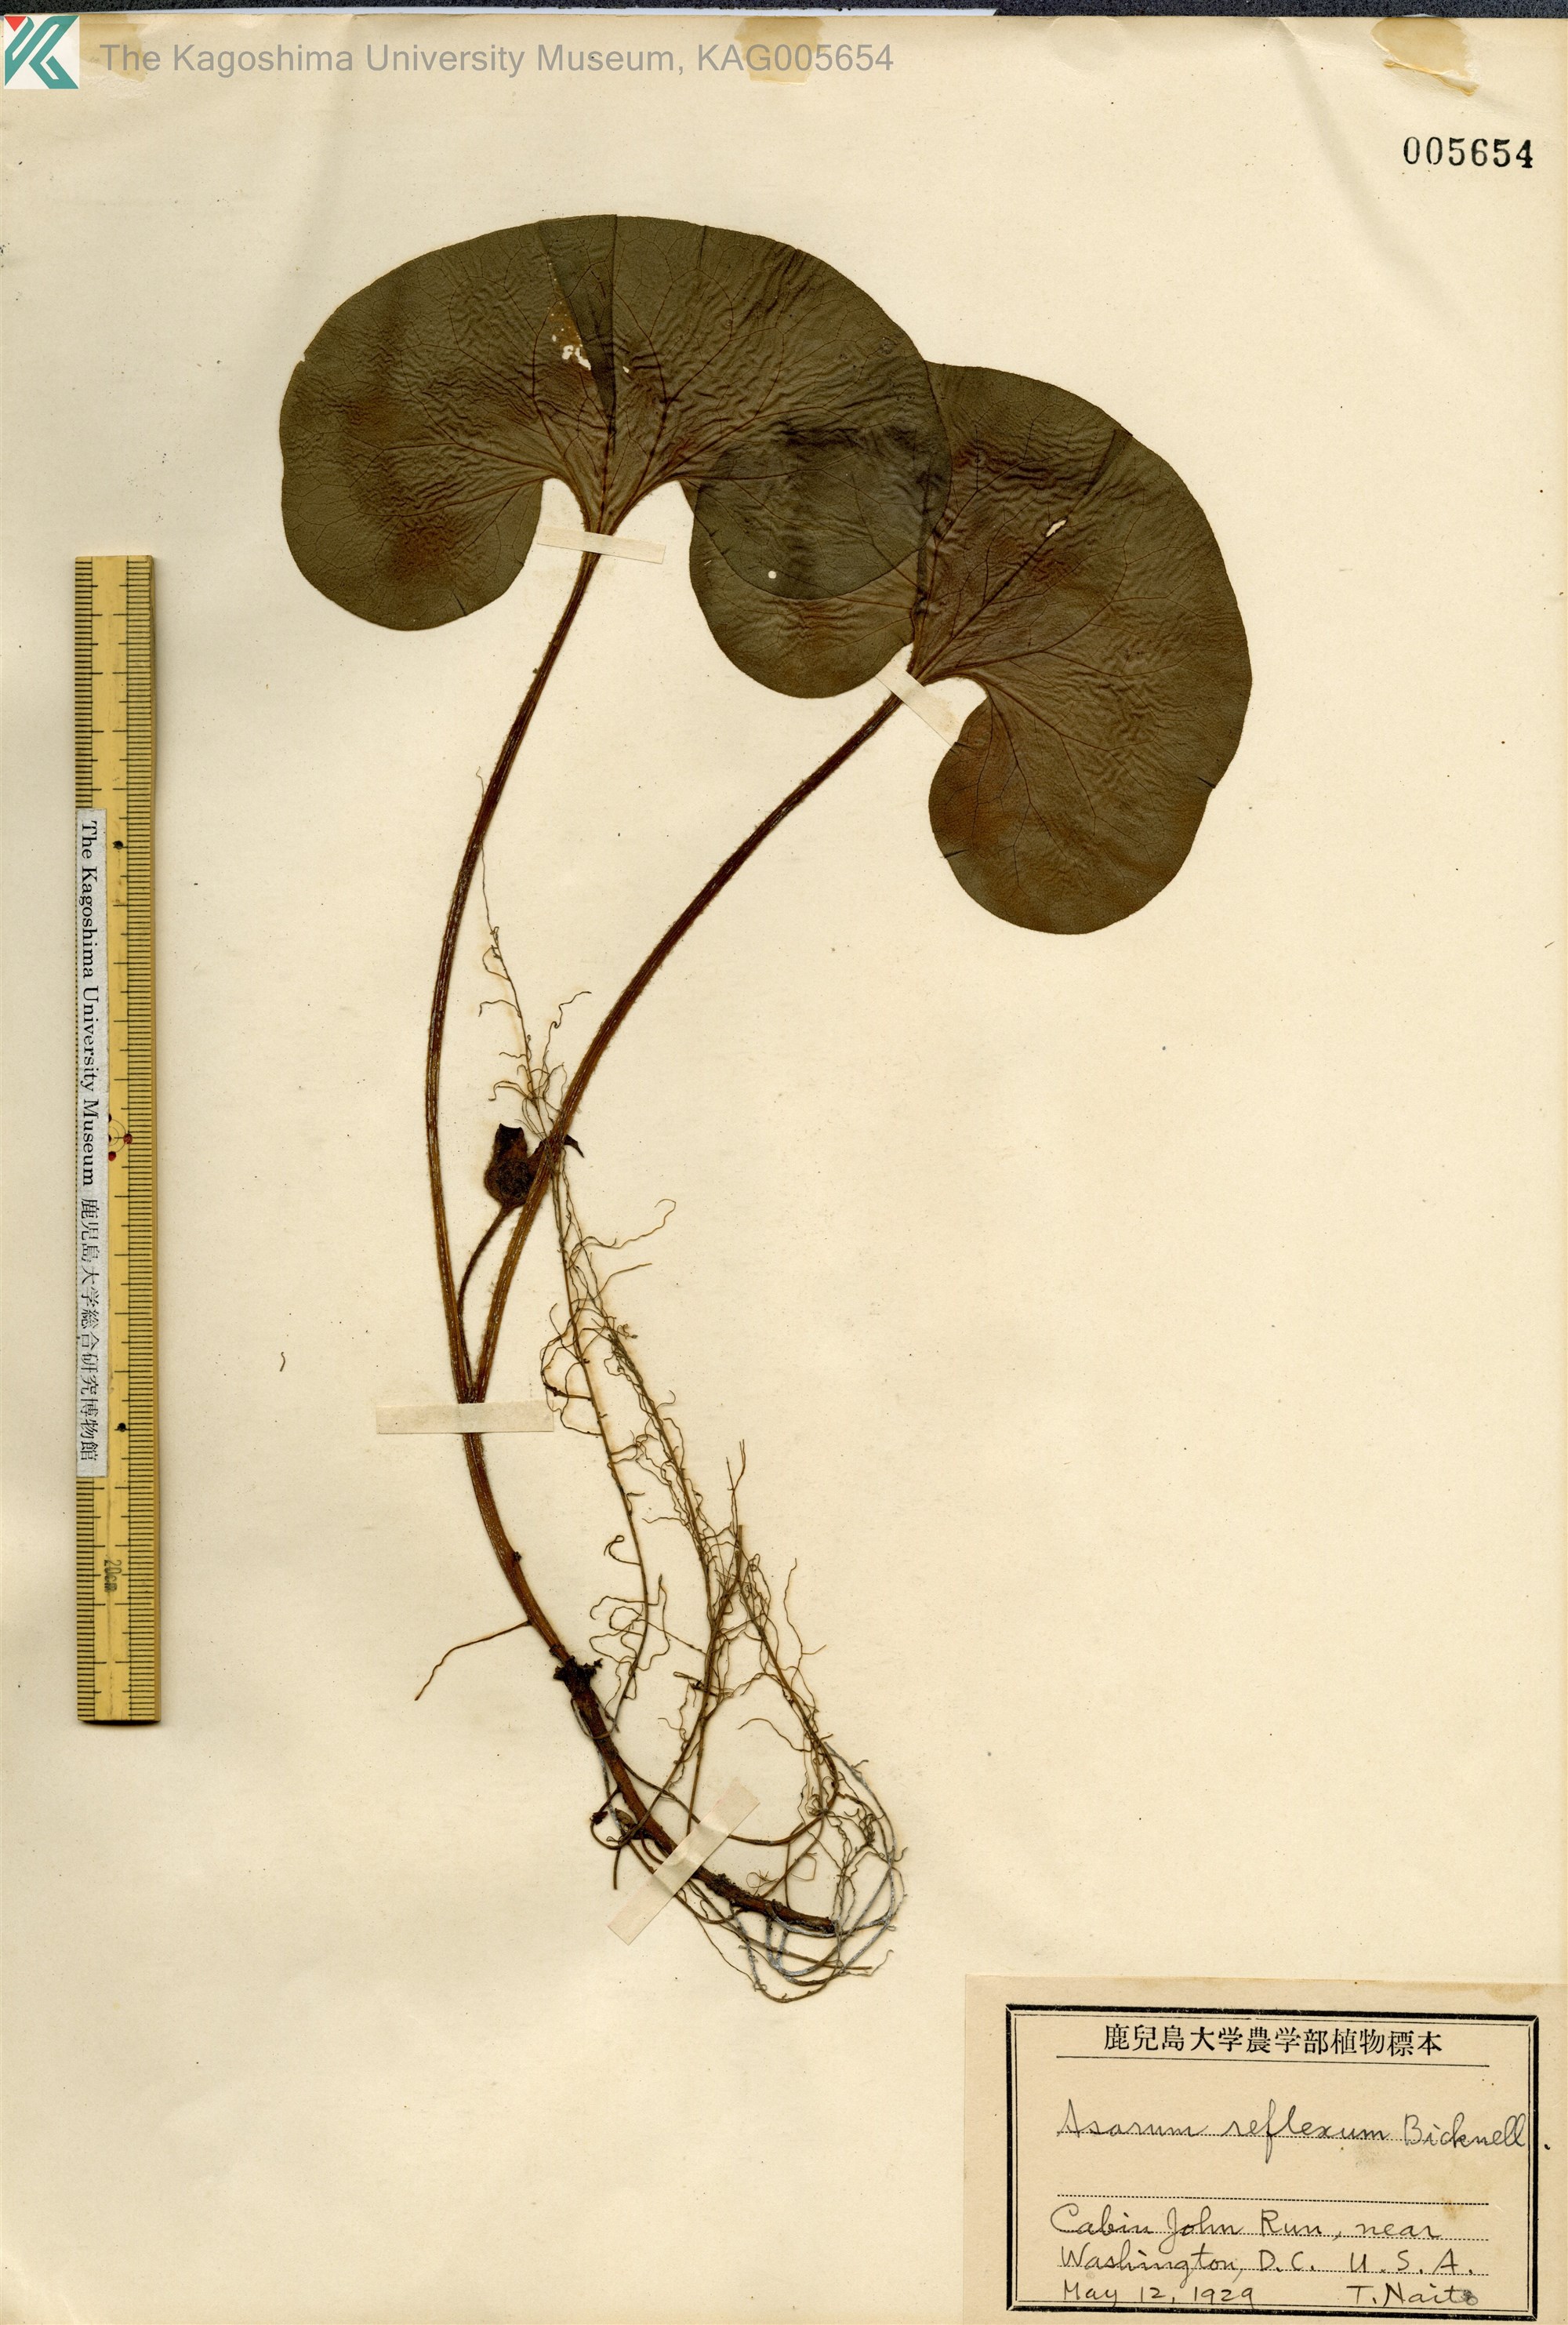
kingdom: Plantae
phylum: Tracheophyta
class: Magnoliopsida
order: Piperales
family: Aristolochiaceae
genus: Asarum
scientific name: Asarum canadense
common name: Wild ginger
